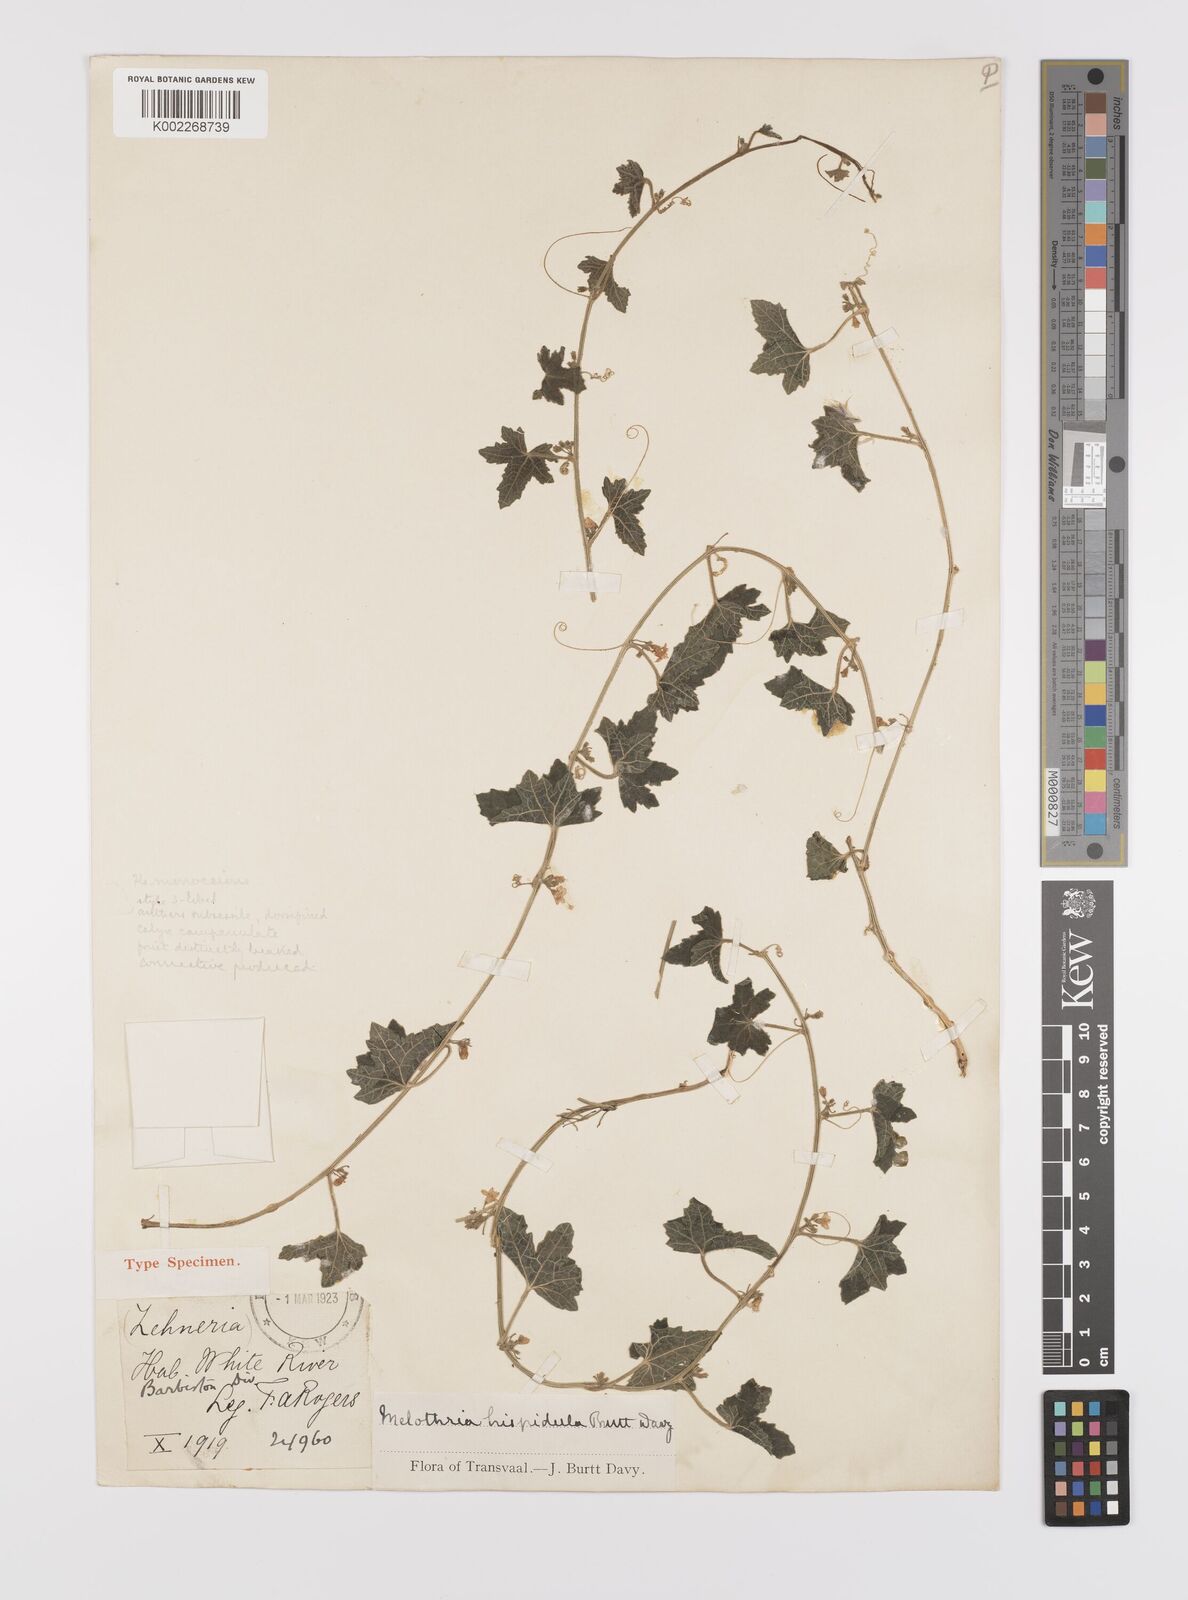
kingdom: Plantae
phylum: Tracheophyta
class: Magnoliopsida
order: Cucurbitales
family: Cucurbitaceae
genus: Cucumis
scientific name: Cucumis cinereus
